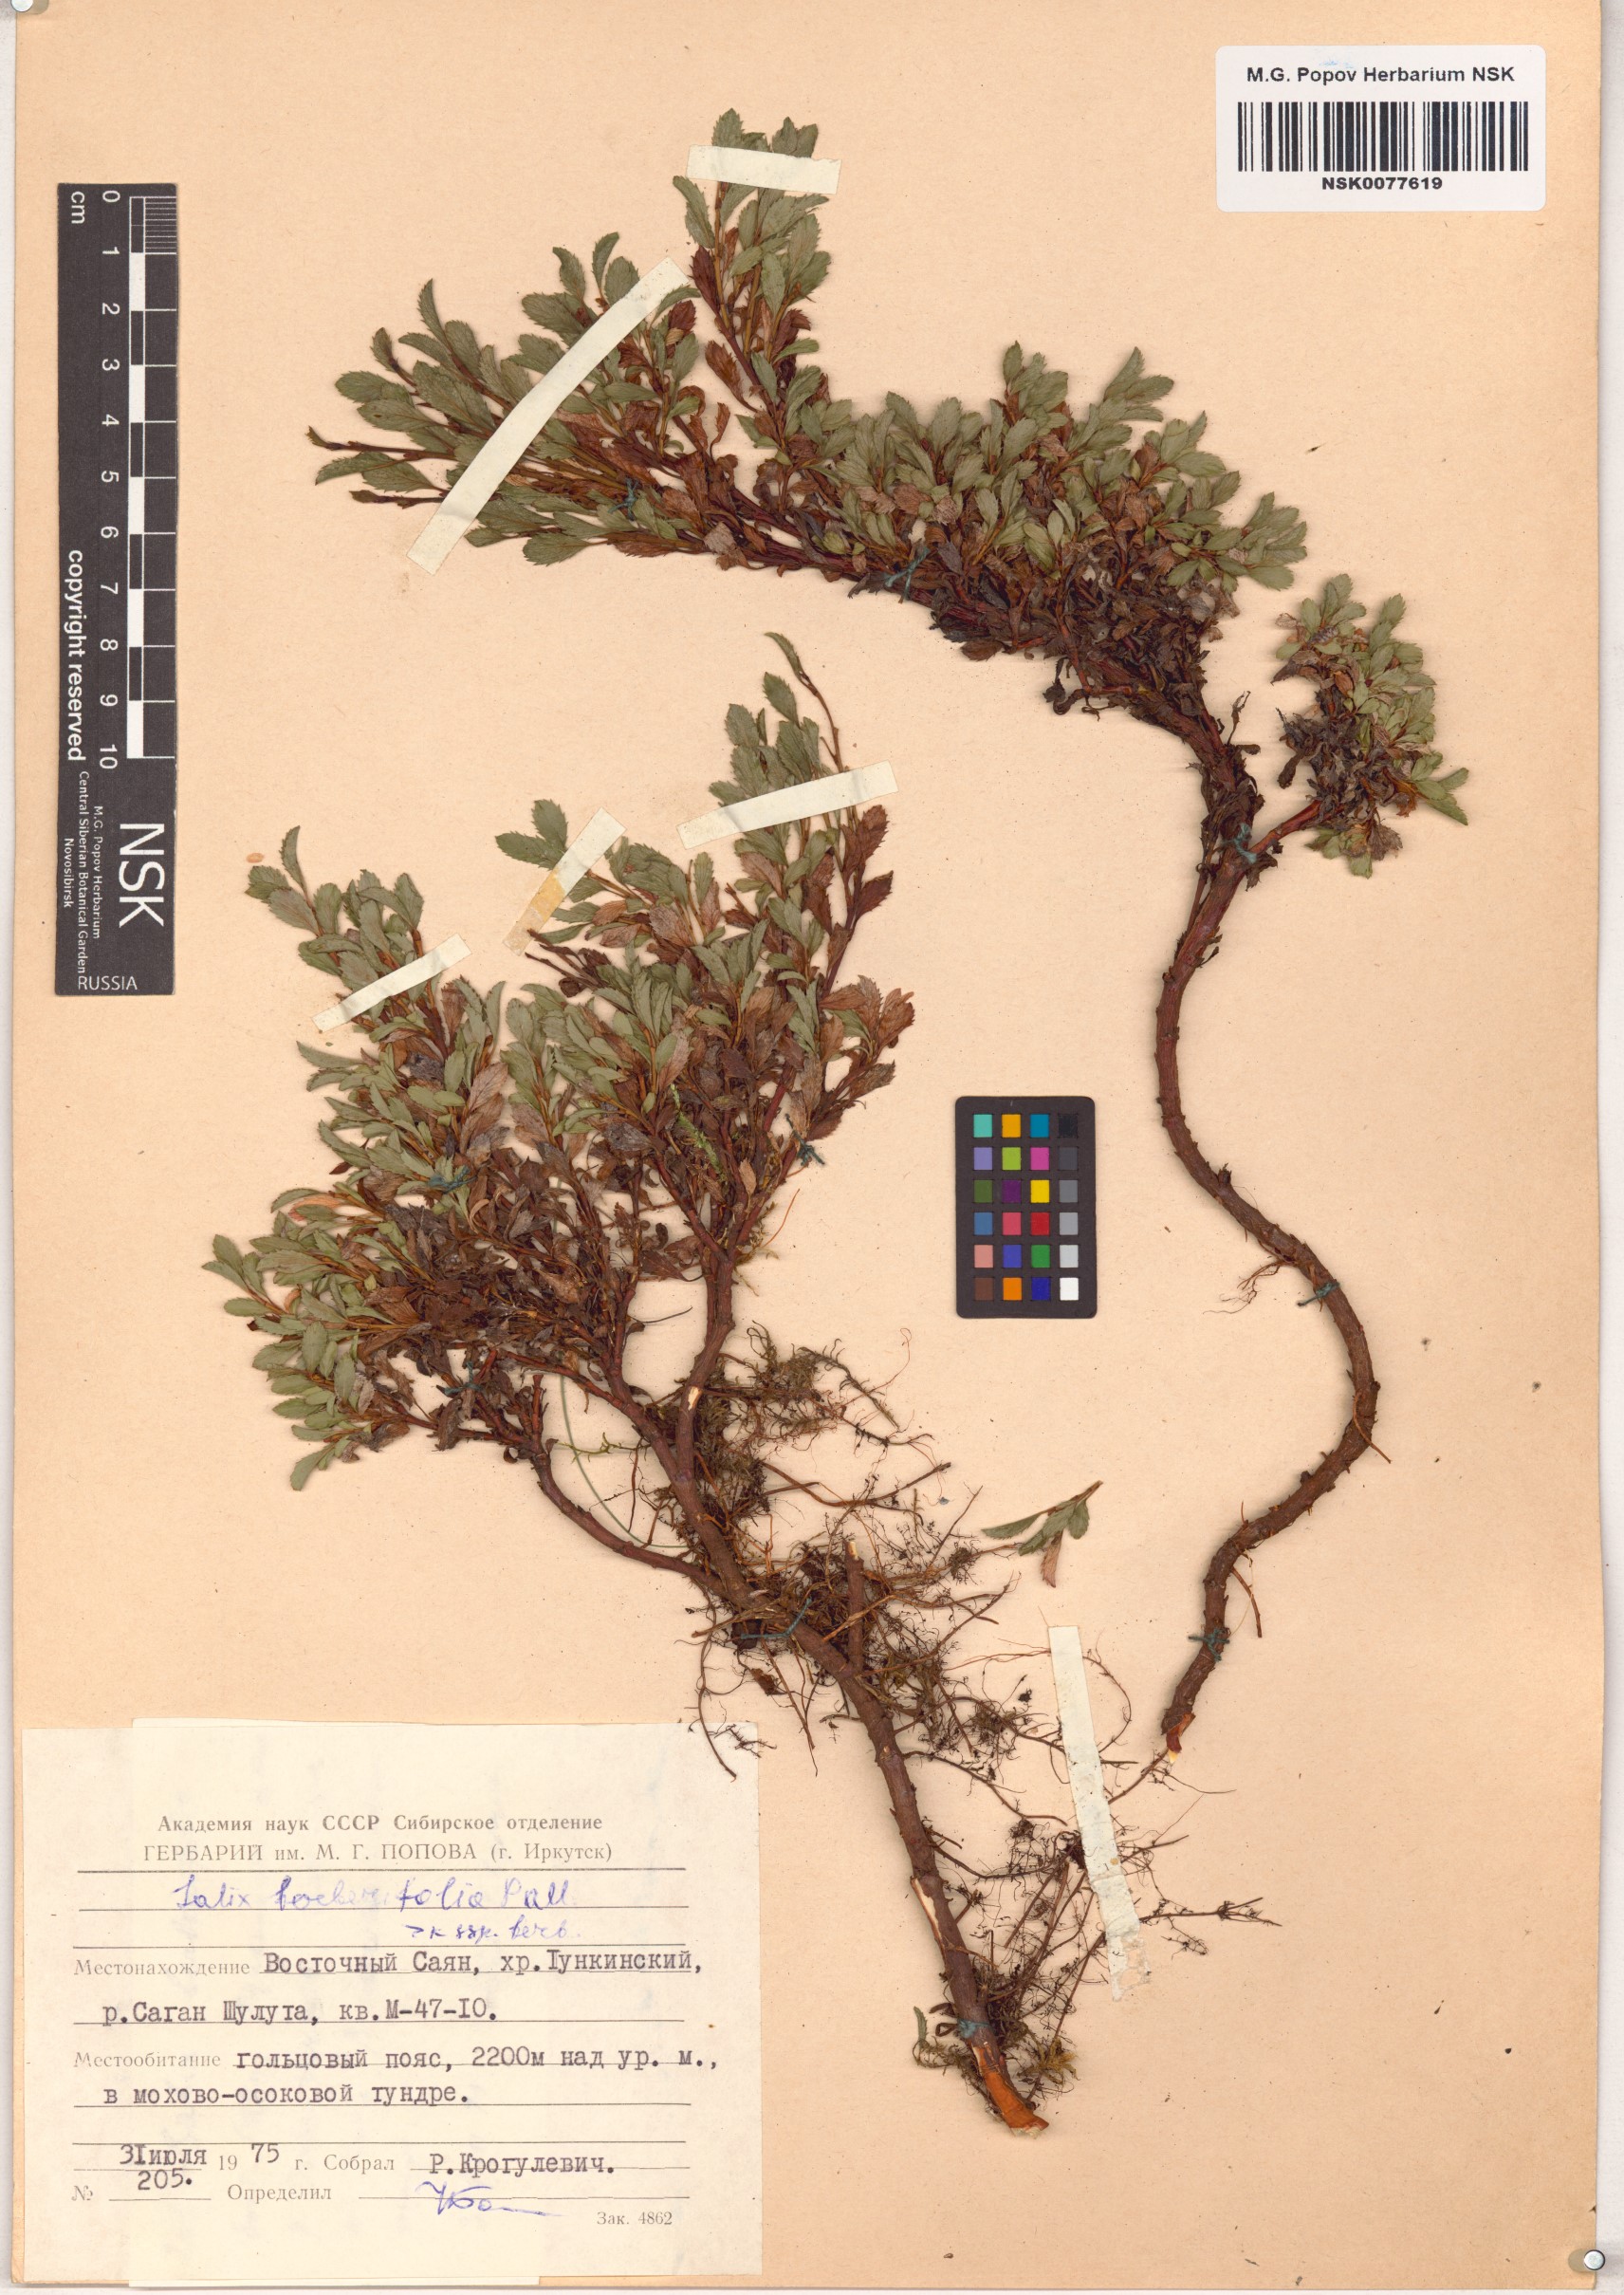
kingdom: Plantae
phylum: Tracheophyta
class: Magnoliopsida
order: Malpighiales
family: Salicaceae
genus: Salix
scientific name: Salix berberifolia
